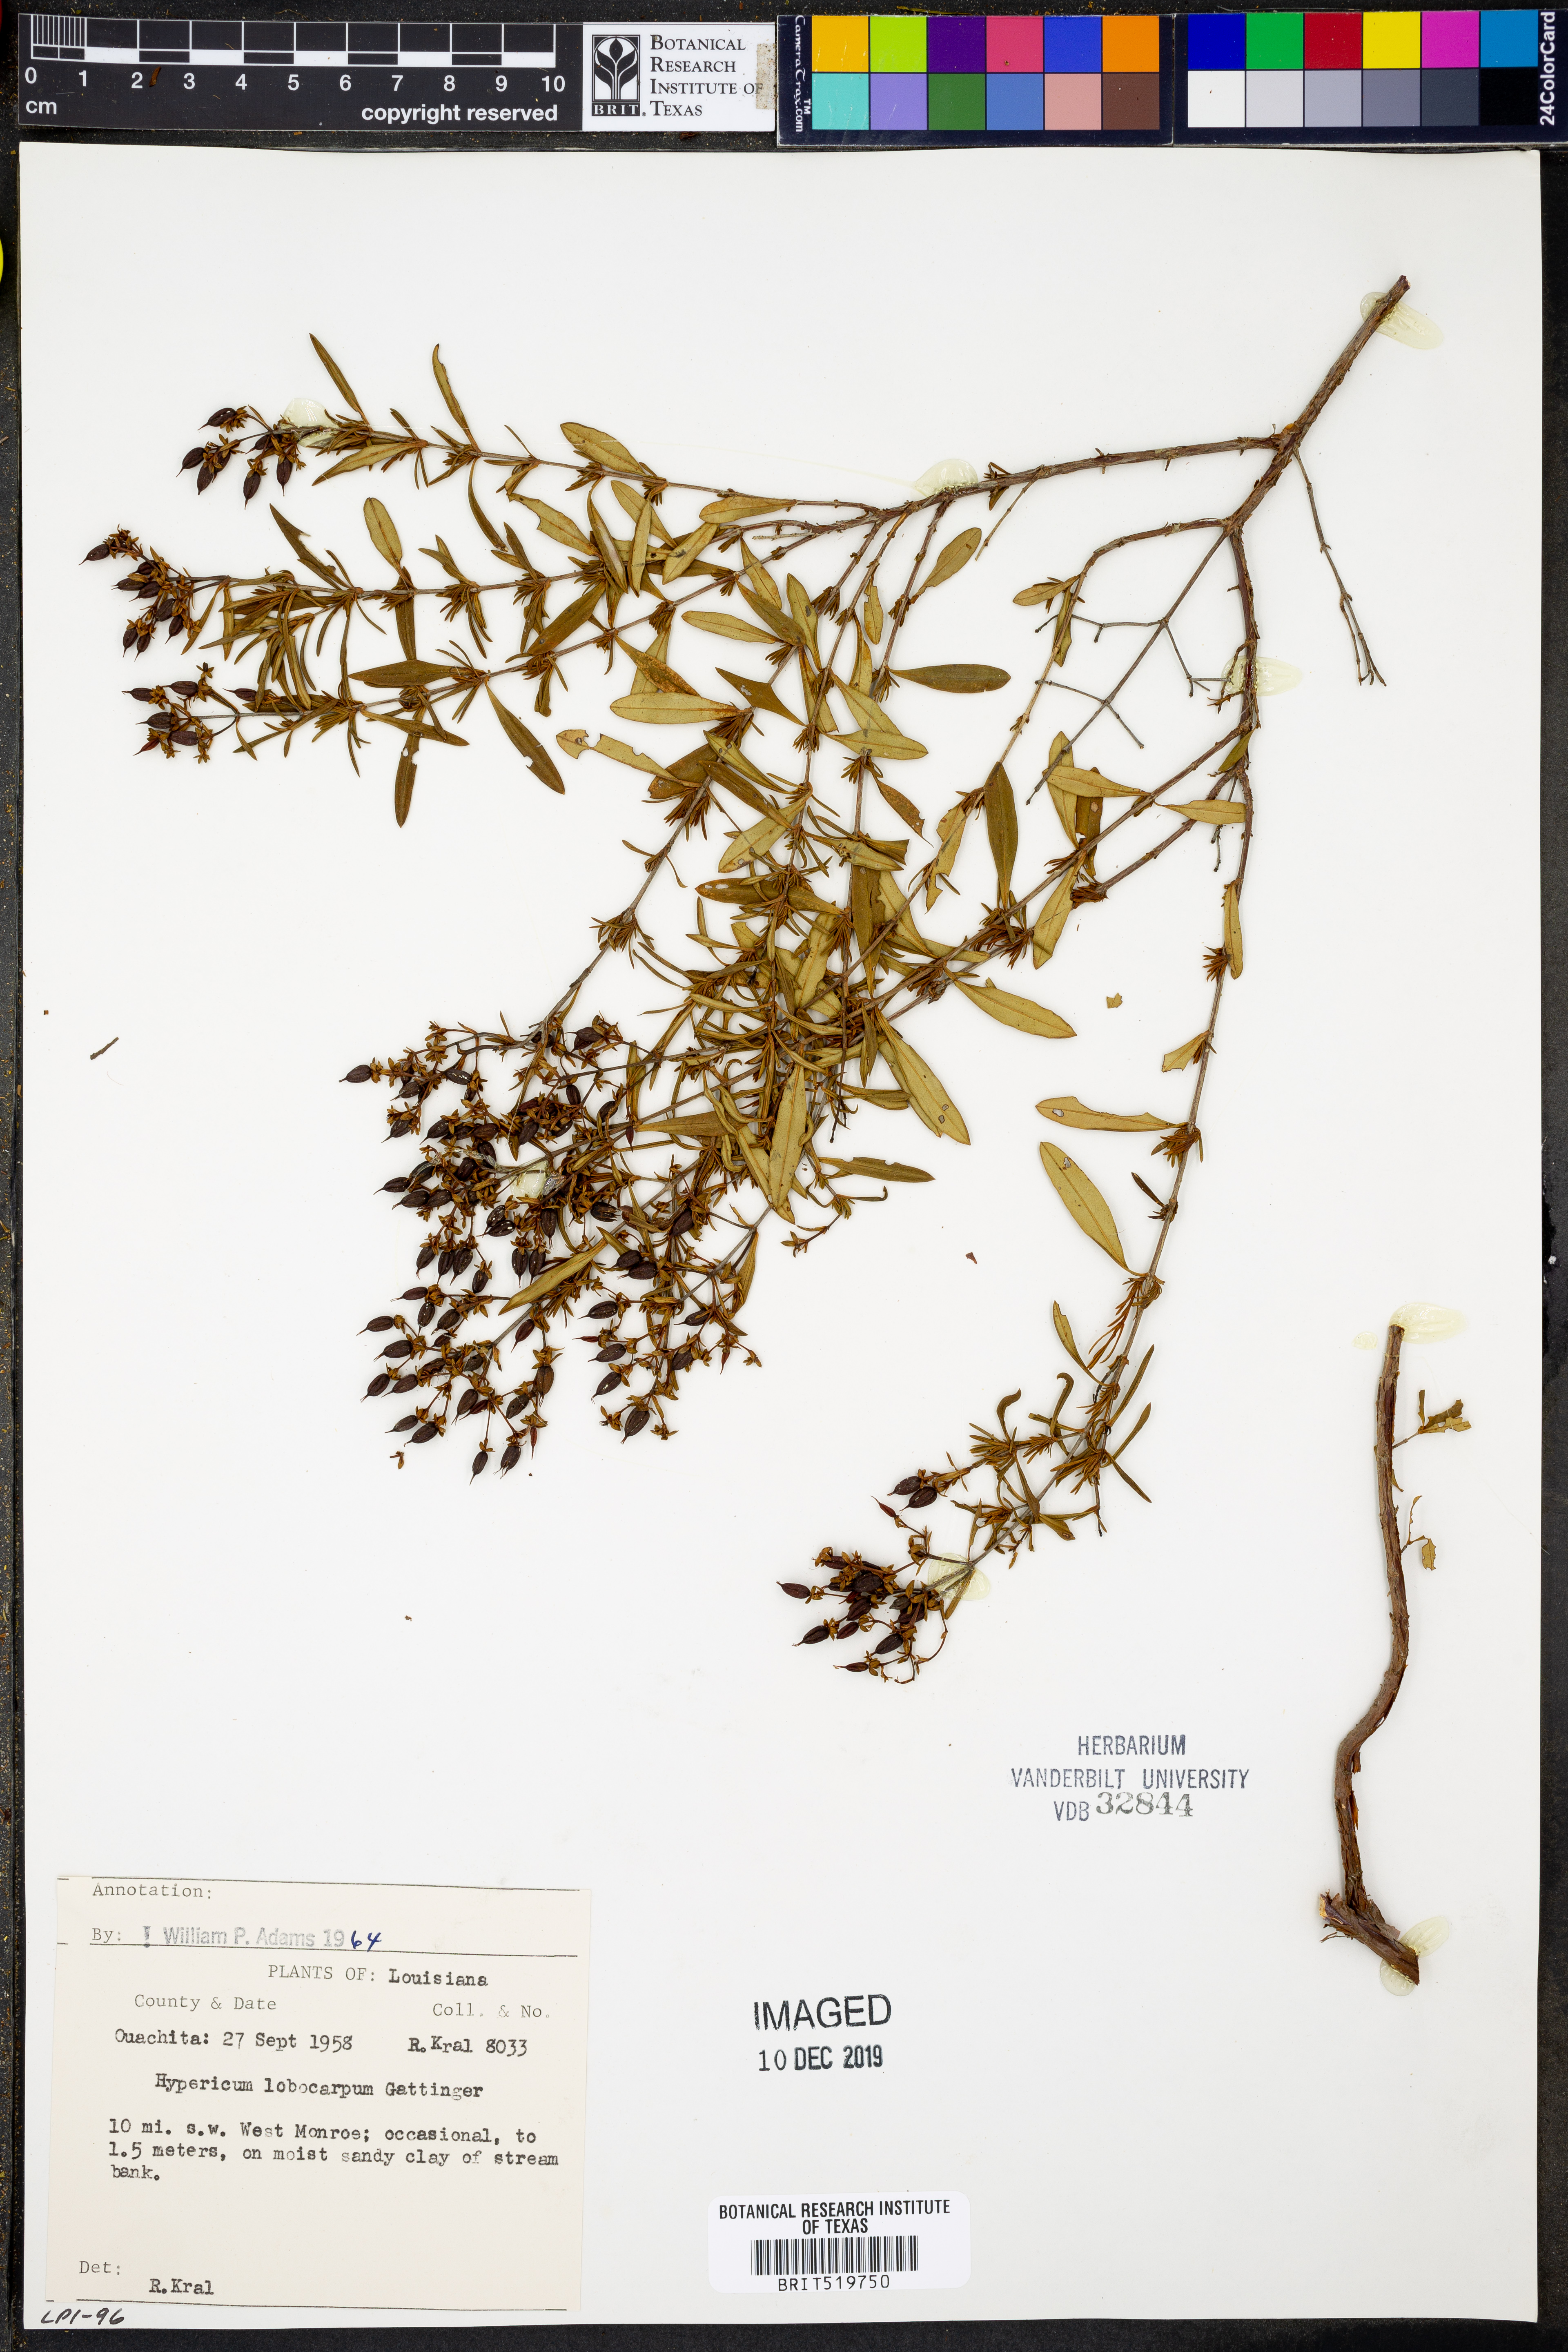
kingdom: Plantae
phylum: Tracheophyta
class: Magnoliopsida
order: Malpighiales
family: Hypericaceae
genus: Hypericum
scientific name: Hypericum lobocarpum
